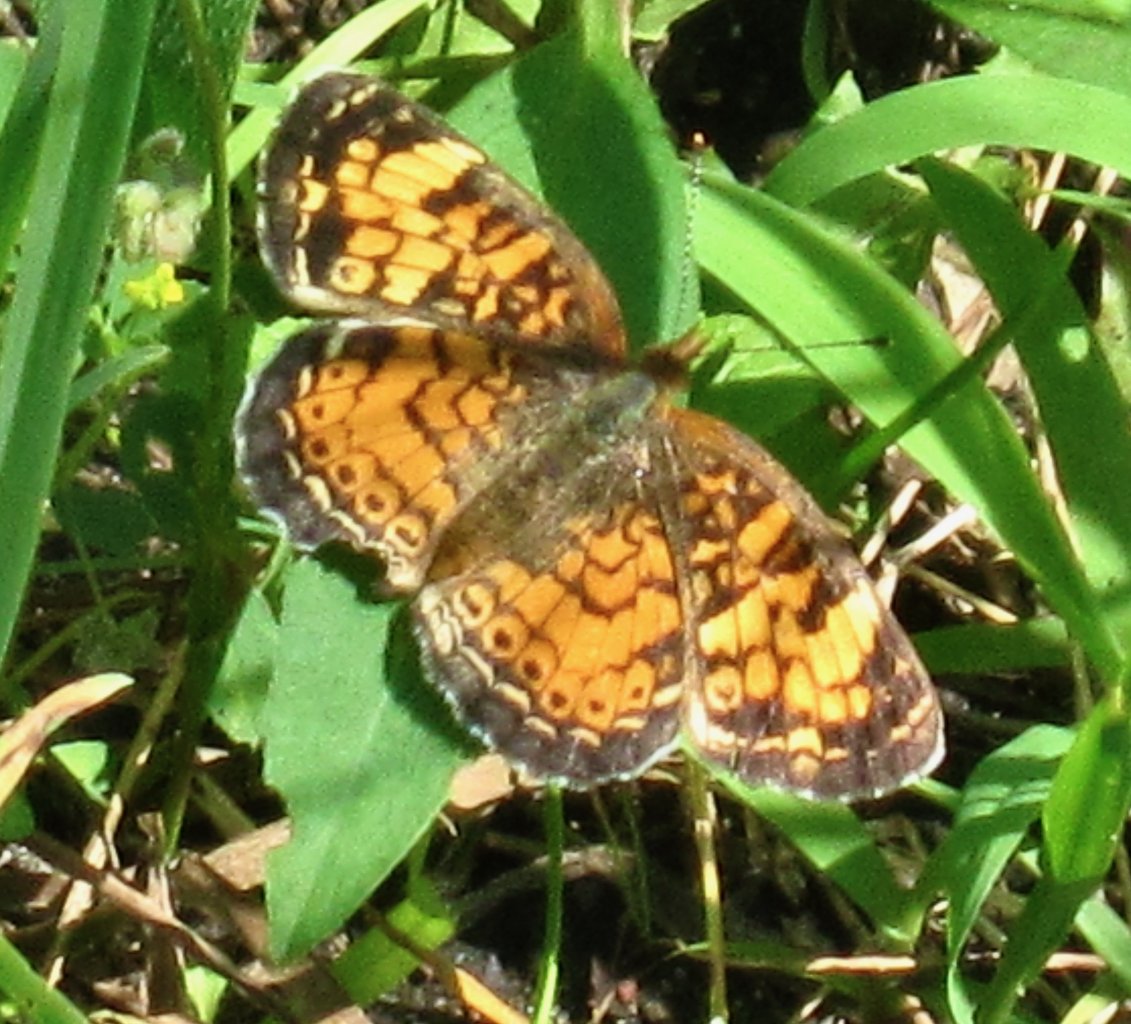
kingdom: Animalia
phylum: Arthropoda
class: Insecta
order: Lepidoptera
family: Nymphalidae
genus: Phyciodes
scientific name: Phyciodes tharos
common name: Pearl Crescent
